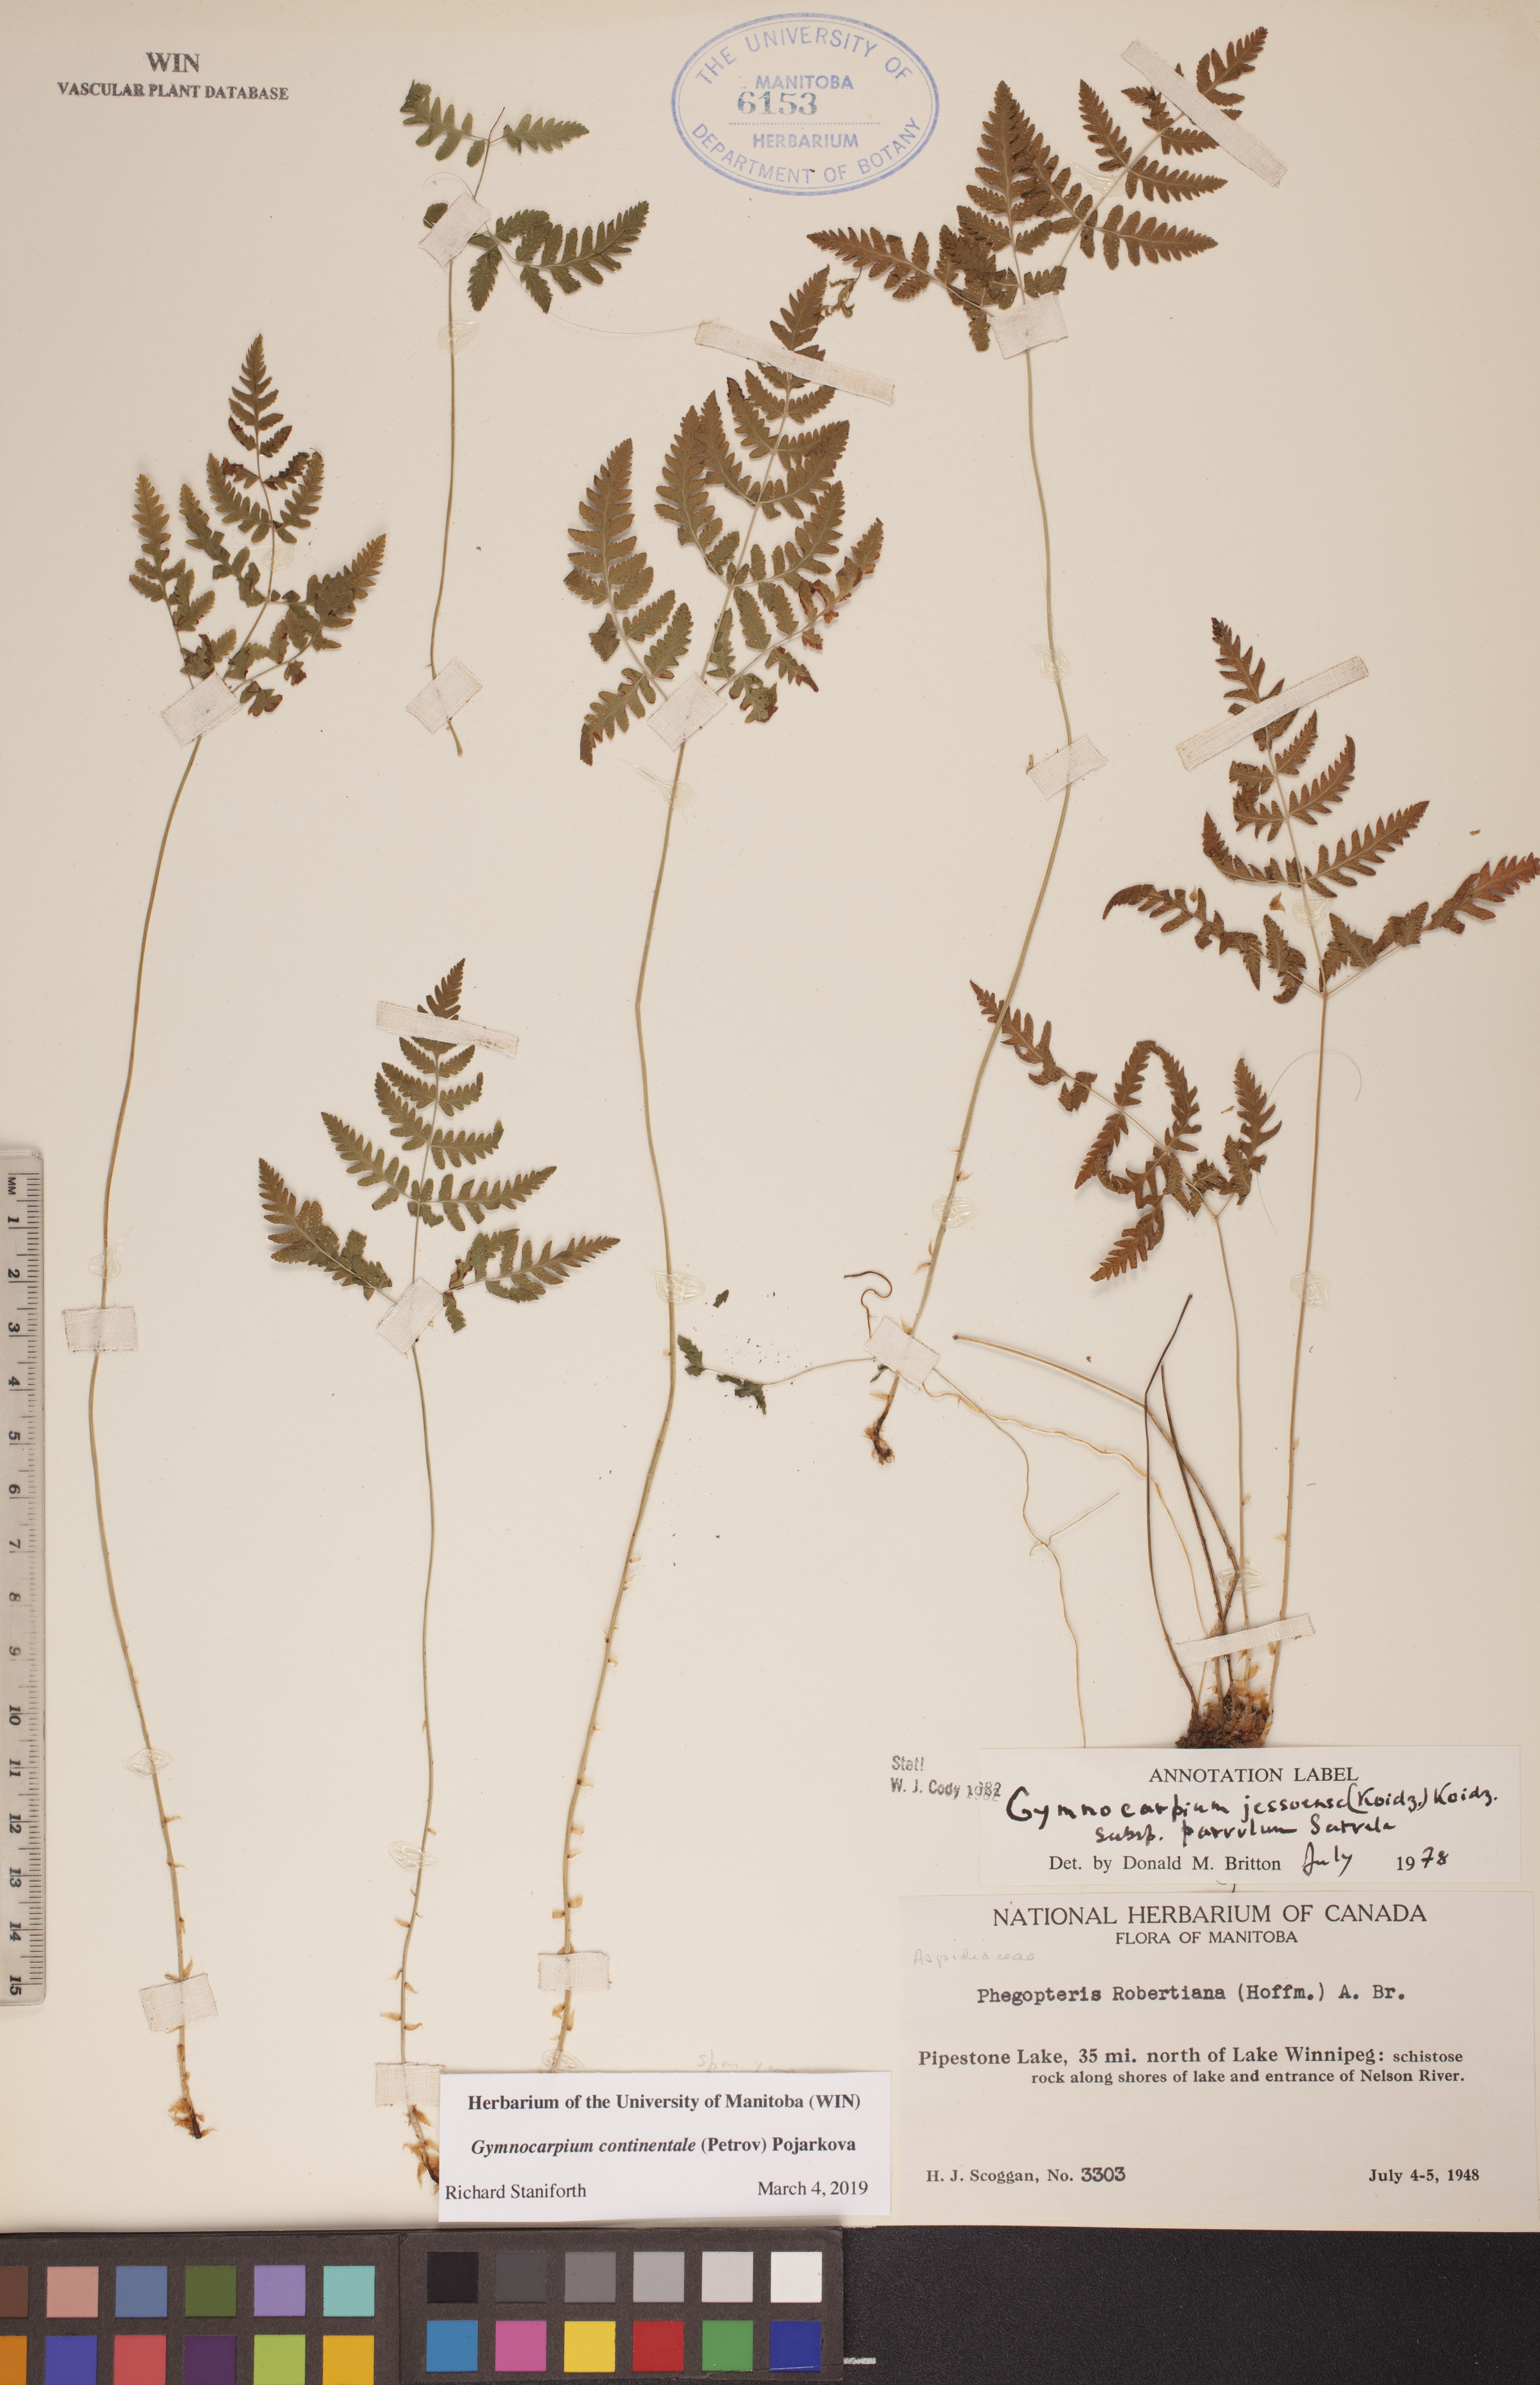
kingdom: Plantae
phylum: Tracheophyta
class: Polypodiopsida
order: Polypodiales
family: Cystopteridaceae
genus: Gymnocarpium
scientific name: Gymnocarpium continentale
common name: Asian oak fern
